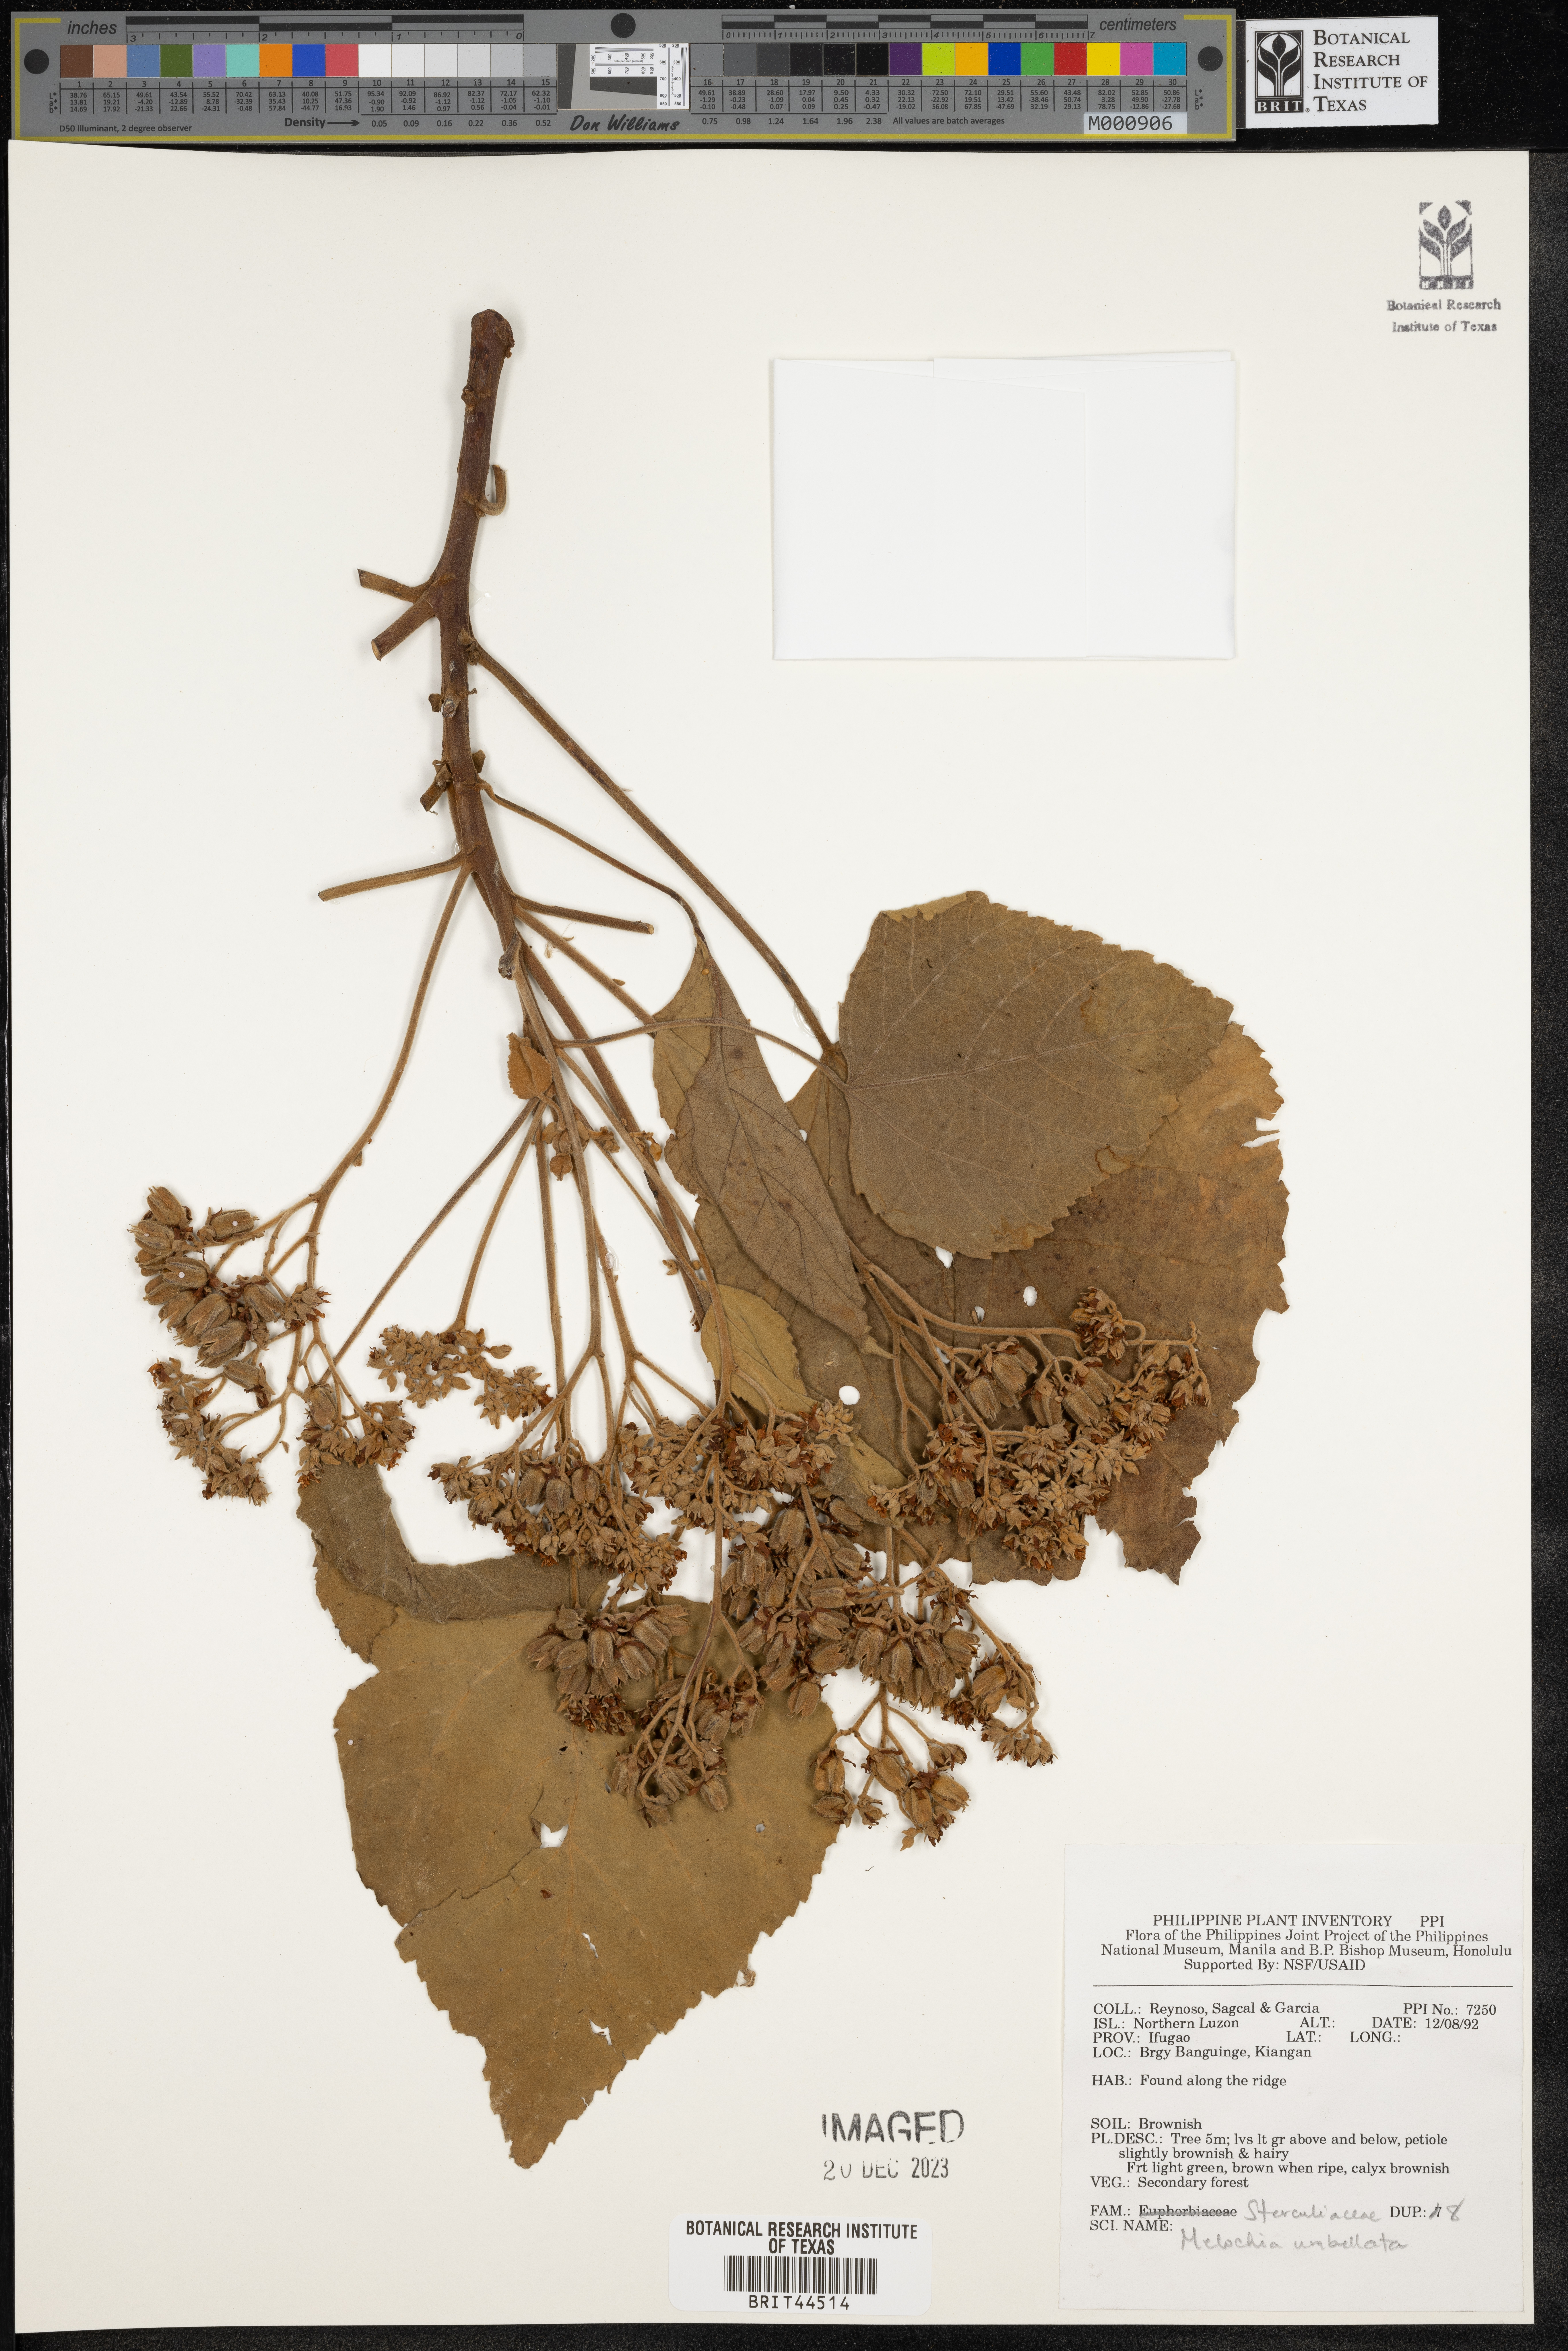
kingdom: Plantae
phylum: Tracheophyta
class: Magnoliopsida
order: Malvales
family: Malvaceae
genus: Melochia
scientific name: Melochia umbellata
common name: Gunpowder tree
